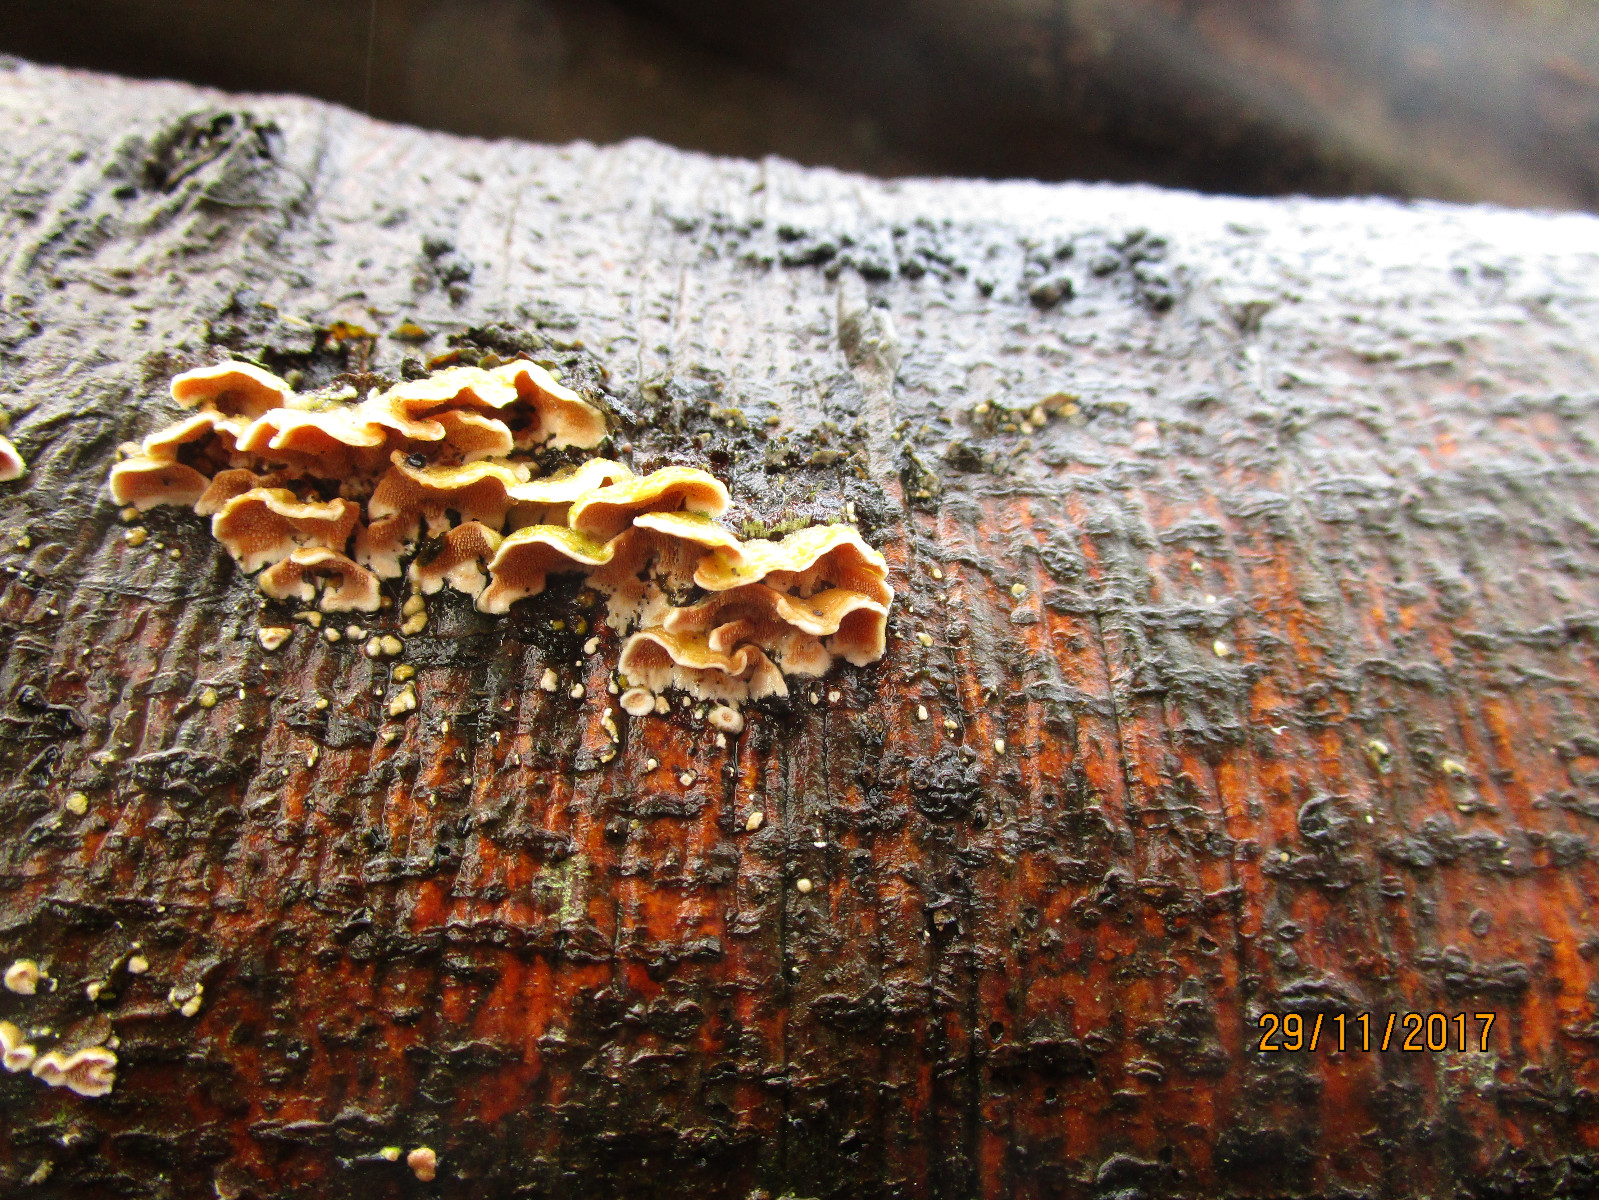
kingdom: Fungi
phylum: Basidiomycota
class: Agaricomycetes
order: Polyporales
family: Steccherinaceae
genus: Steccherinum
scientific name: Steccherinum ochraceum
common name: almindelig skønpig
